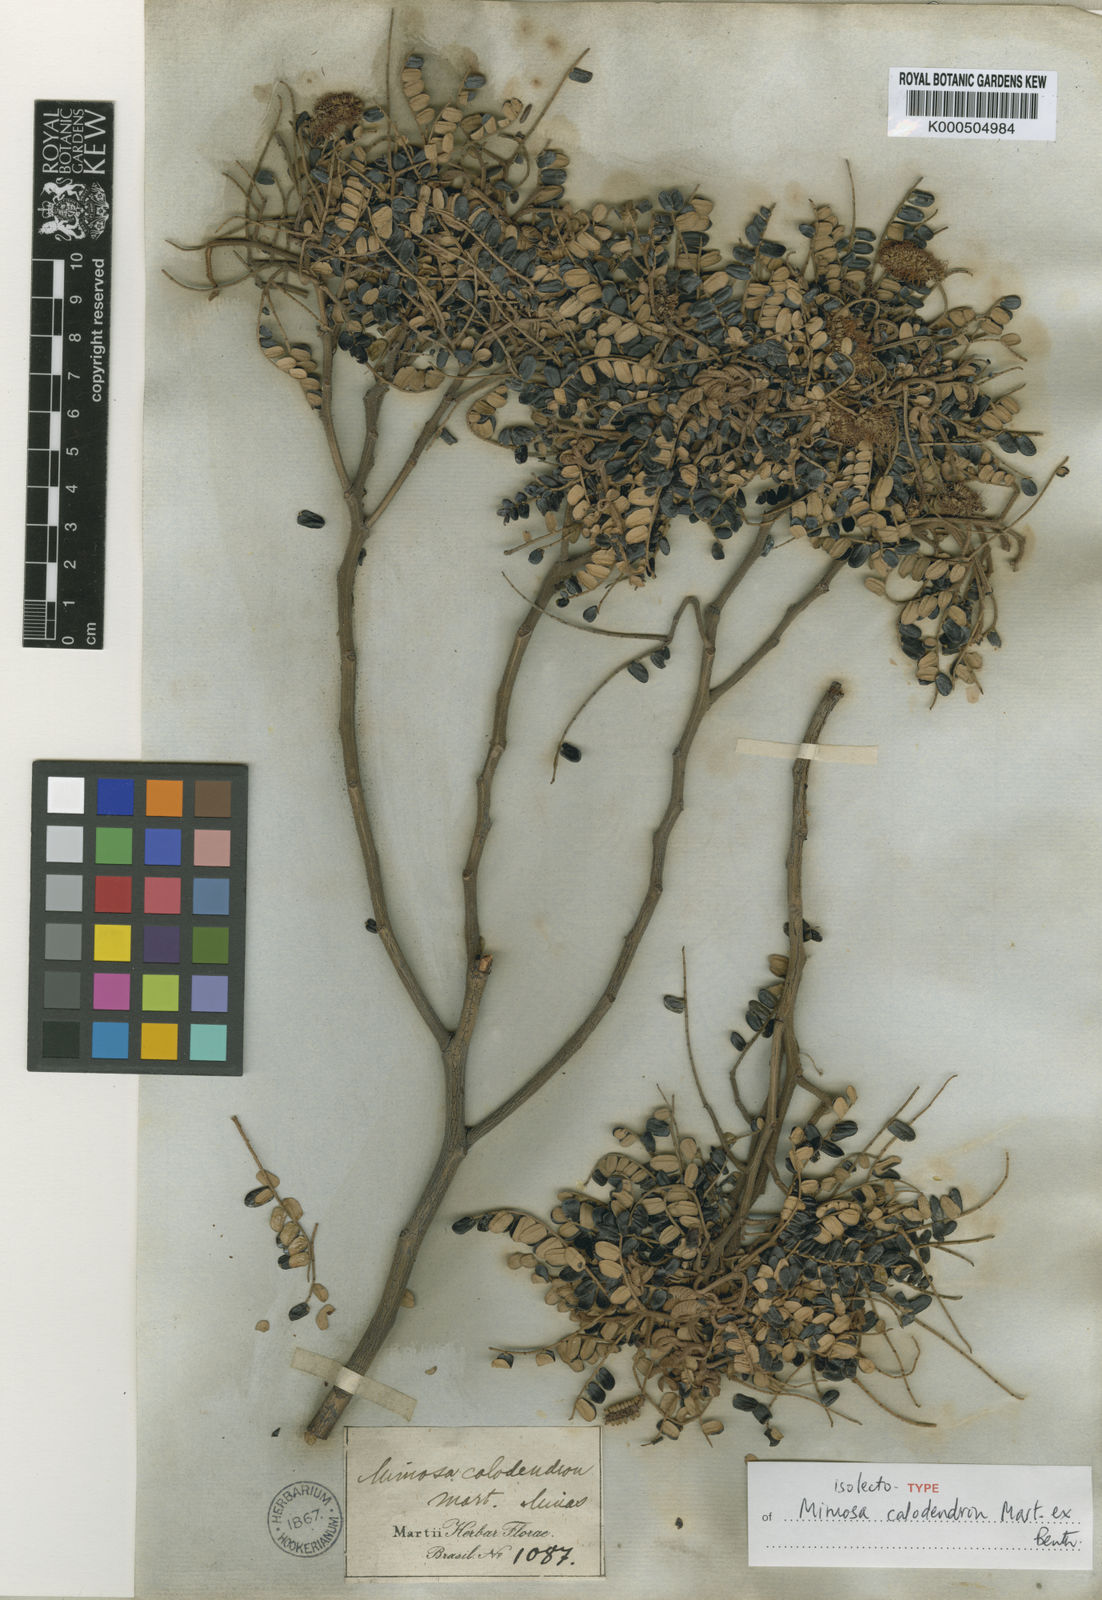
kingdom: Plantae
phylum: Tracheophyta
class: Magnoliopsida
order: Fabales
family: Fabaceae
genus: Mimosa
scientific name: Mimosa calodendron
